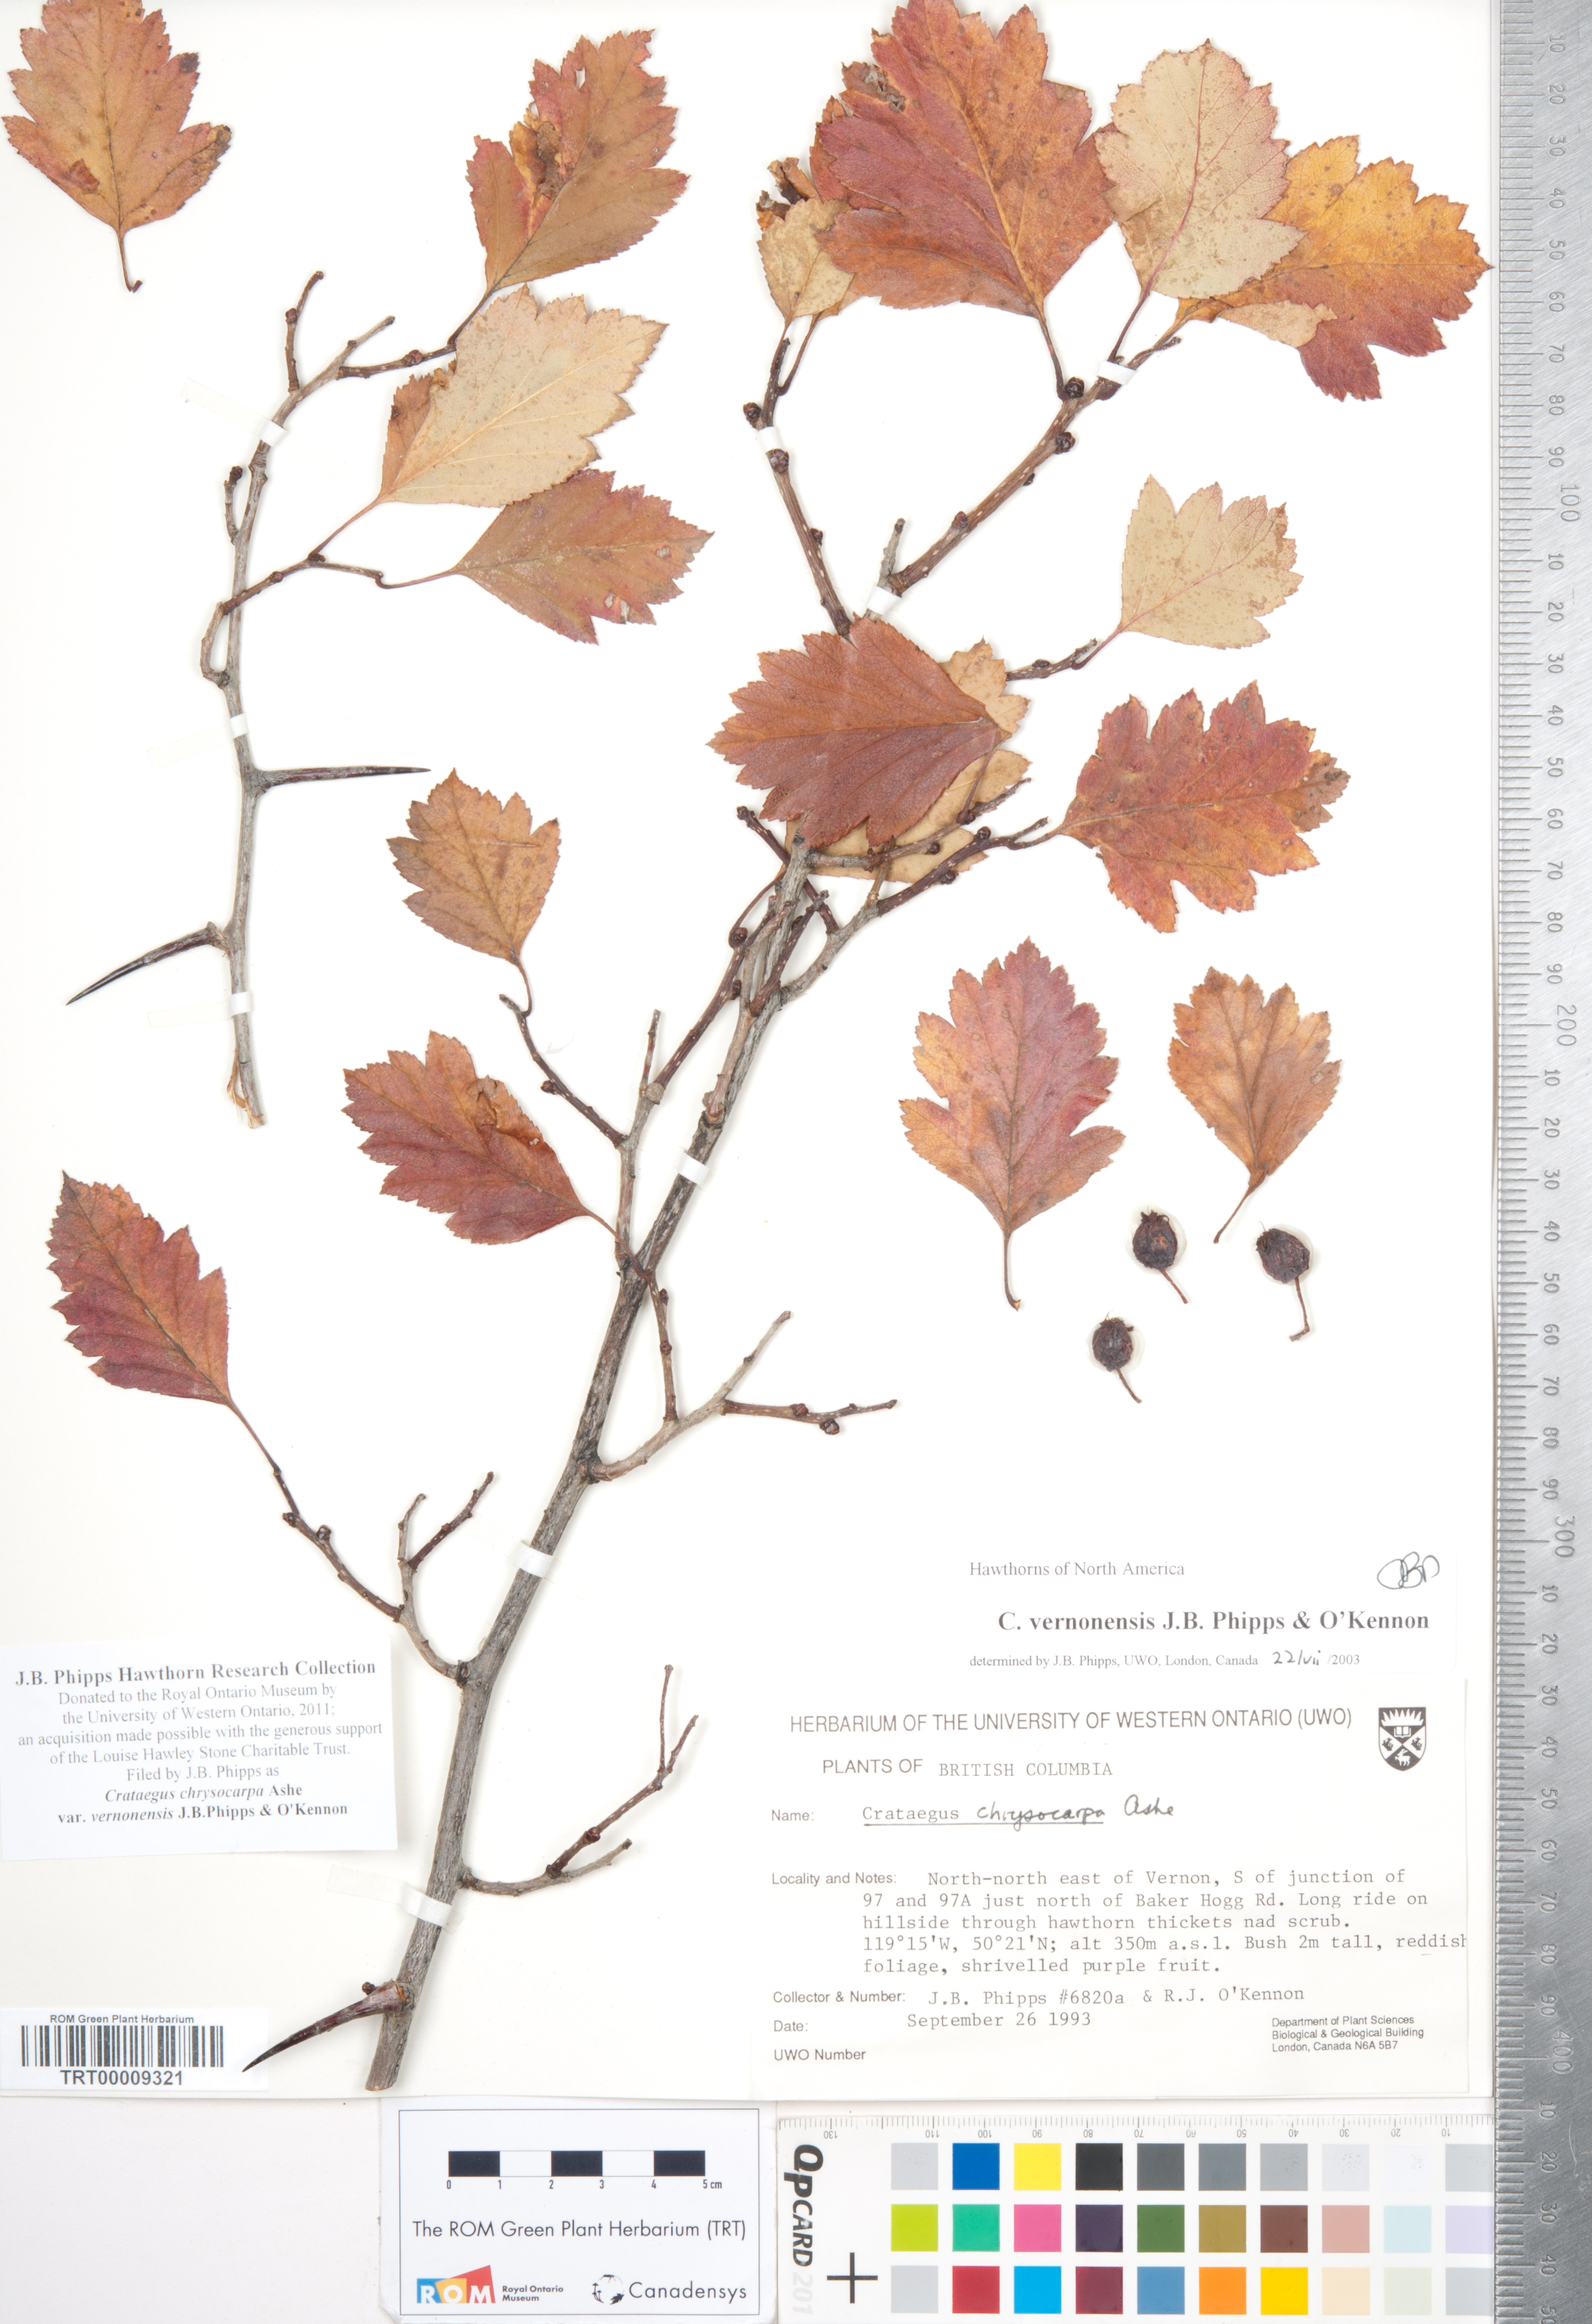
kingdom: Plantae
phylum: Tracheophyta
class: Magnoliopsida
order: Rosales
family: Rosaceae
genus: Crataegus
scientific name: Crataegus chrysocarpa
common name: Fire-berry hawthorn
